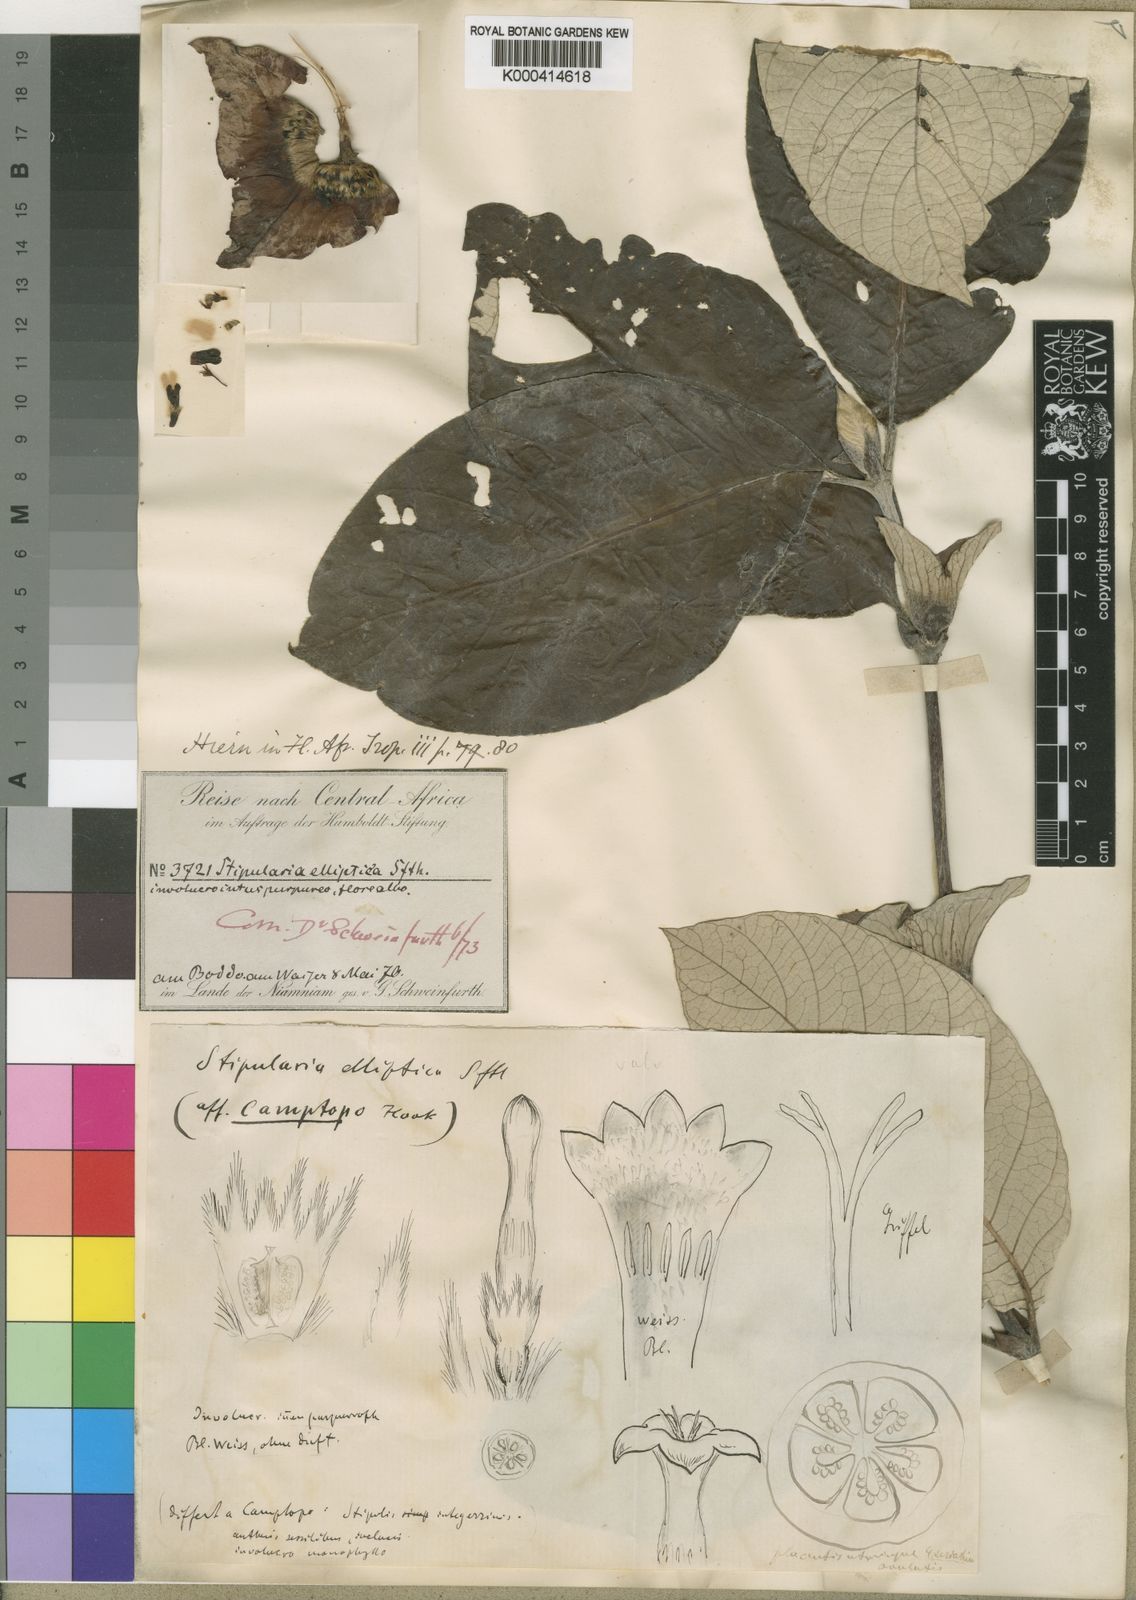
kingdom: Plantae
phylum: Tracheophyta
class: Magnoliopsida
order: Gentianales
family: Rubiaceae
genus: Stipularia
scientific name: Stipularia elliptica
